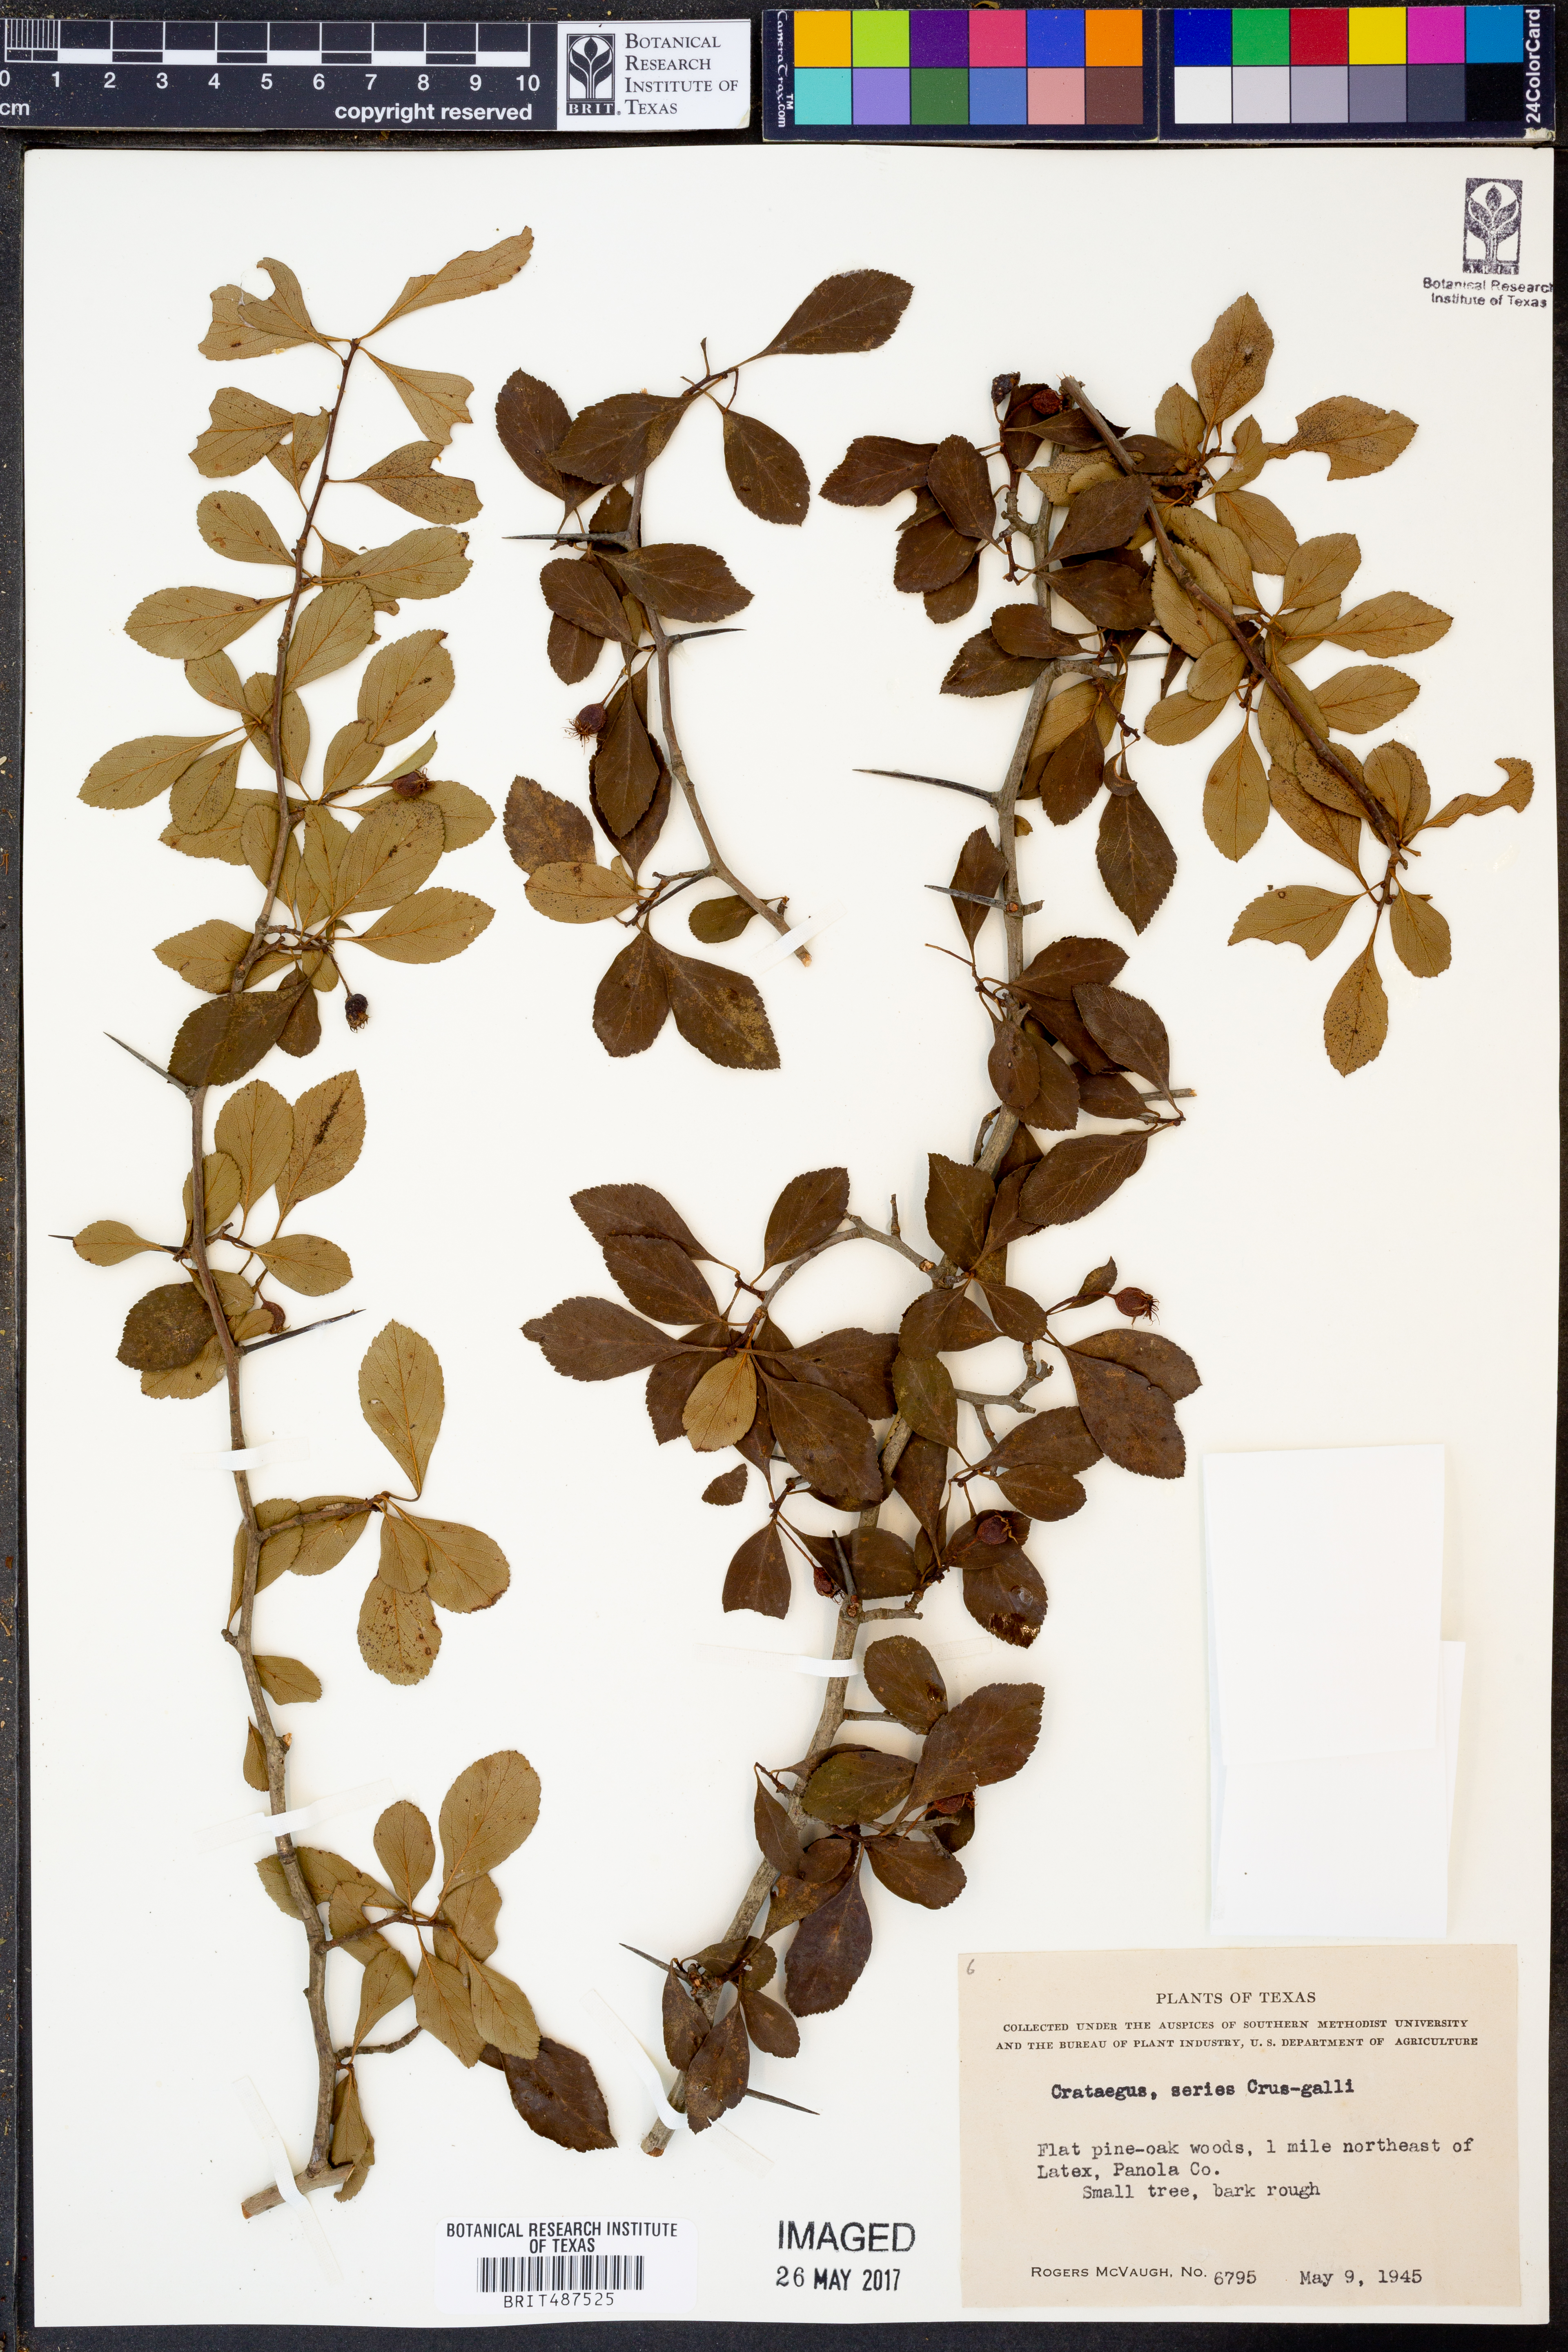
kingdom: Plantae
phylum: Tracheophyta
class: Magnoliopsida
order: Rosales
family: Rosaceae
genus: Crataegus
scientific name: Crataegus crus-galli
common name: Cockspurthorn
